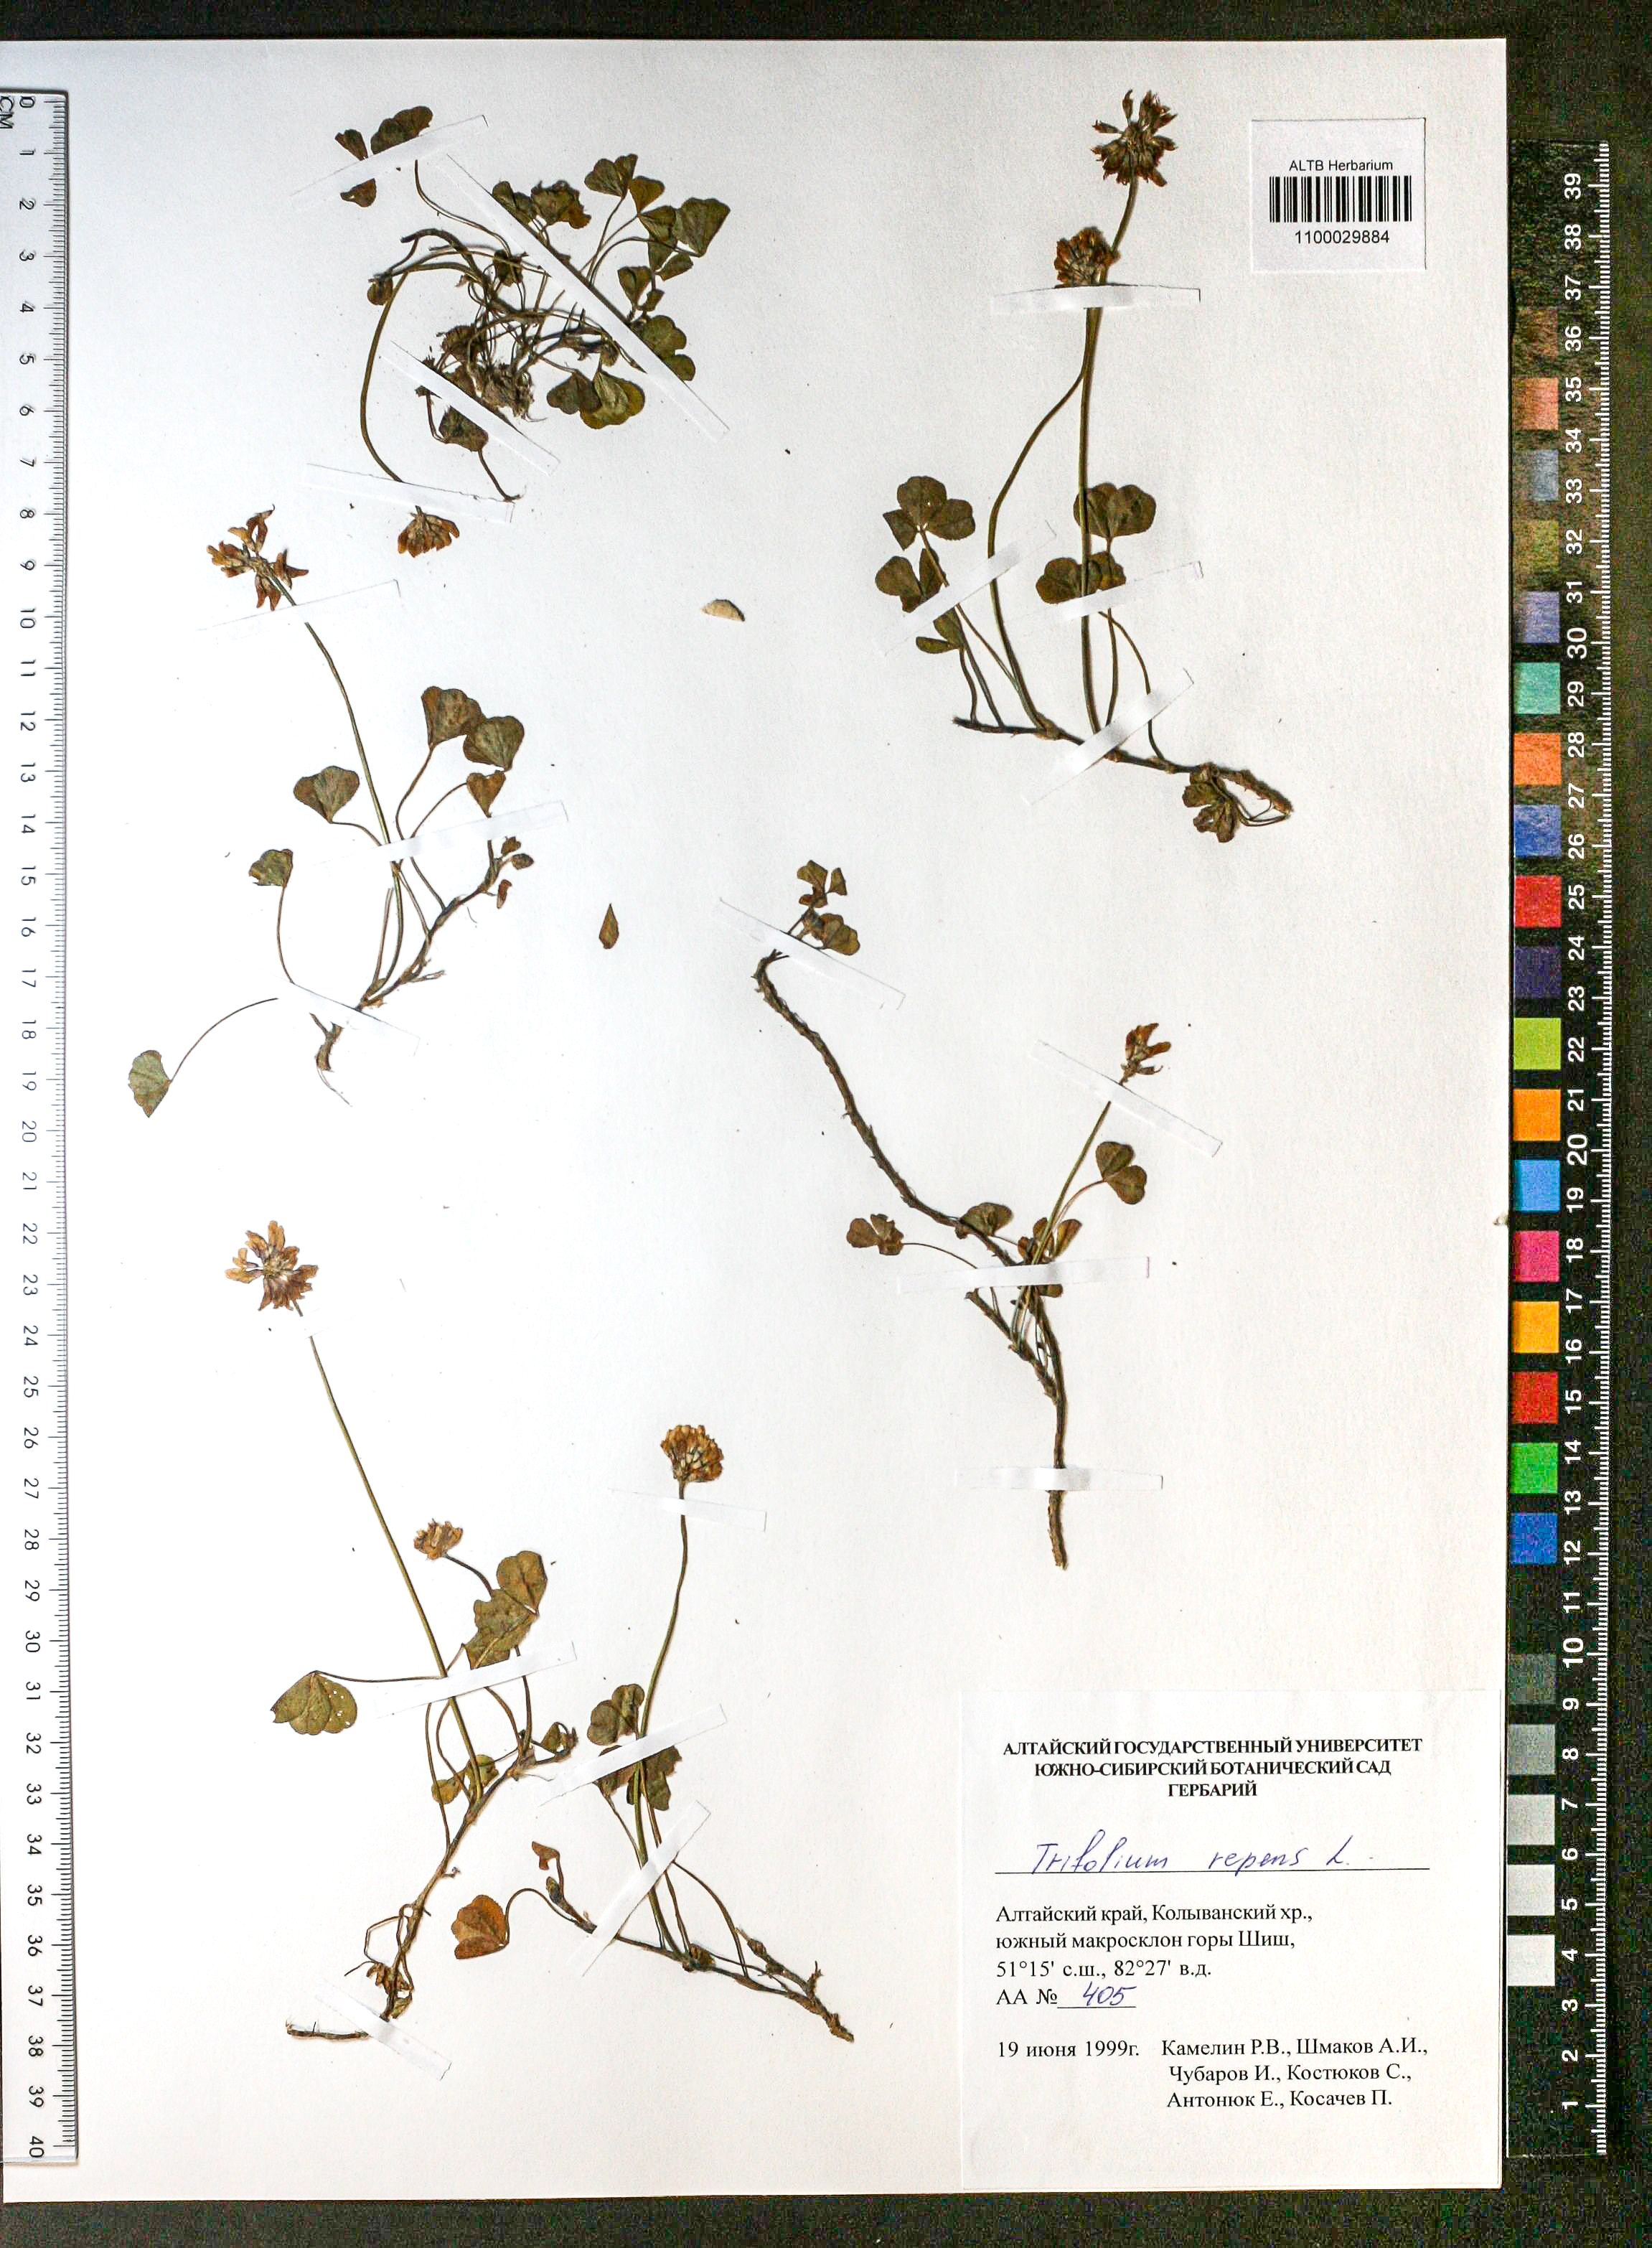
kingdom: Plantae
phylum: Tracheophyta
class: Magnoliopsida
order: Fabales
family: Fabaceae
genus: Trifolium
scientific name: Trifolium repens
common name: White clover
